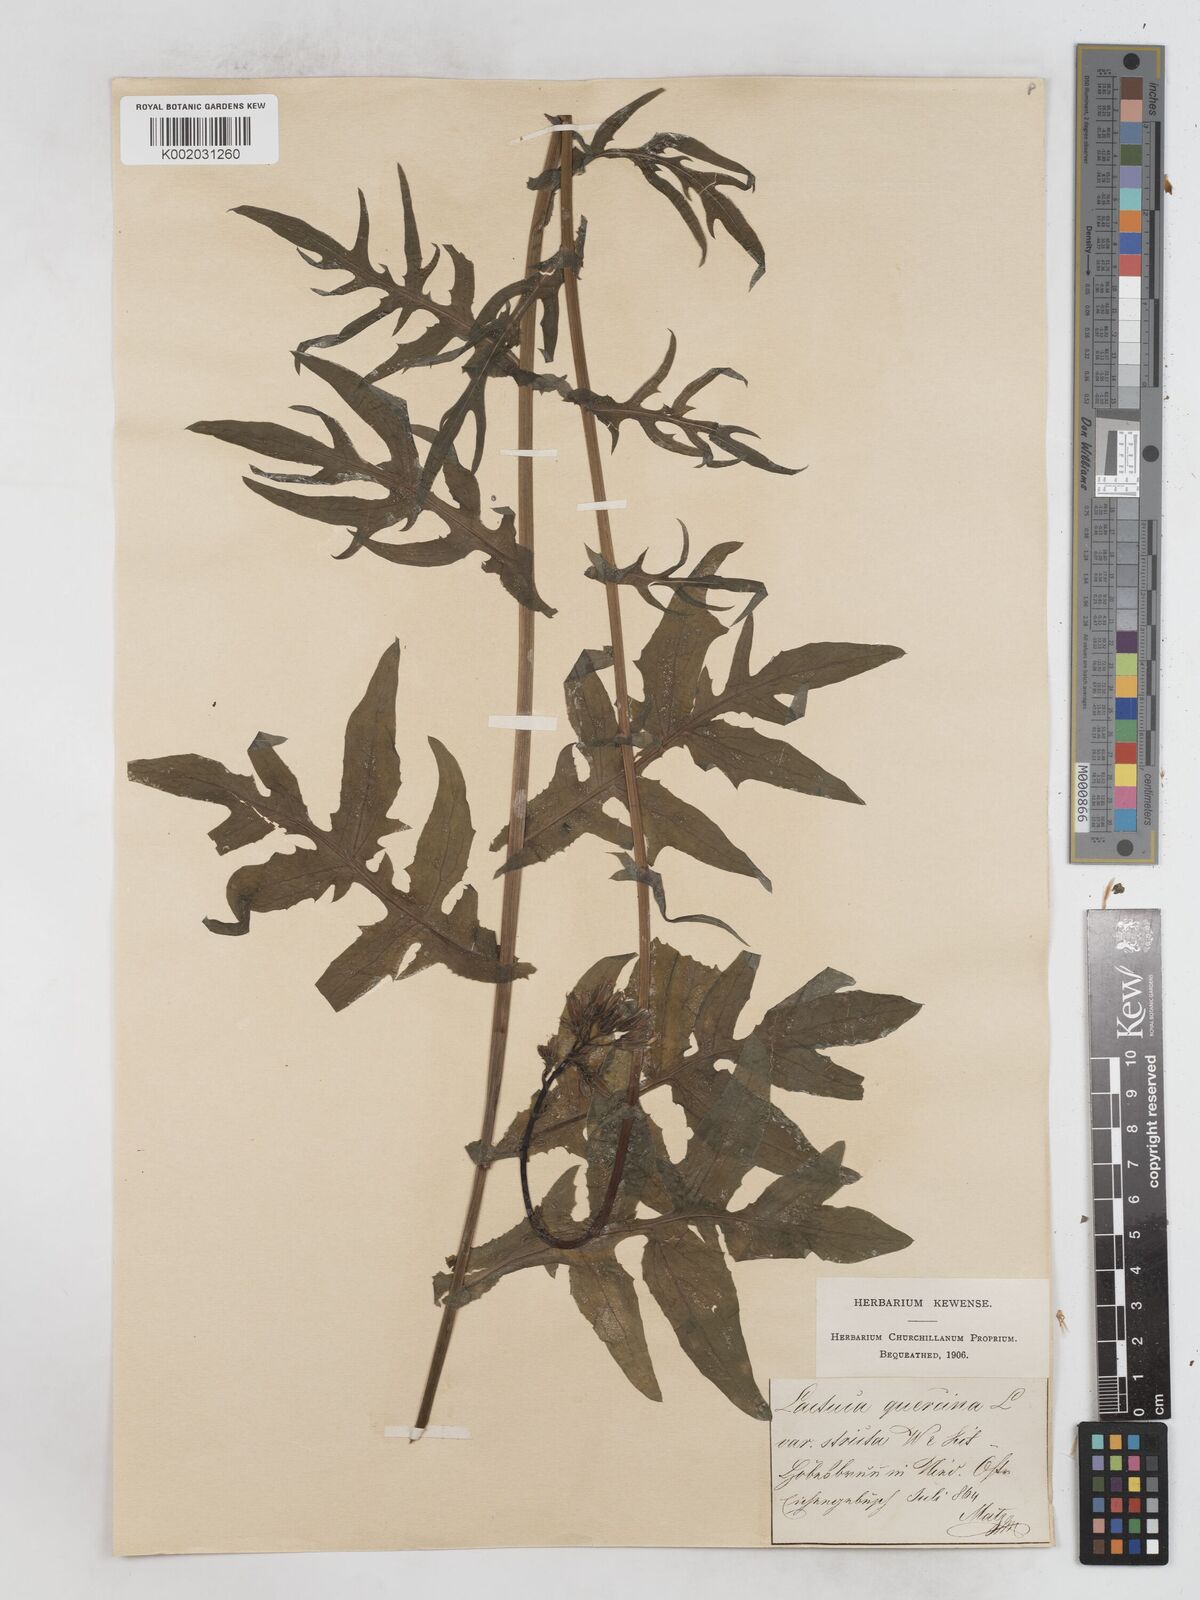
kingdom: Plantae
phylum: Tracheophyta
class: Magnoliopsida
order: Asterales
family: Asteraceae
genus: Lactuca
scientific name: Lactuca quercina
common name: Wild lettuce
